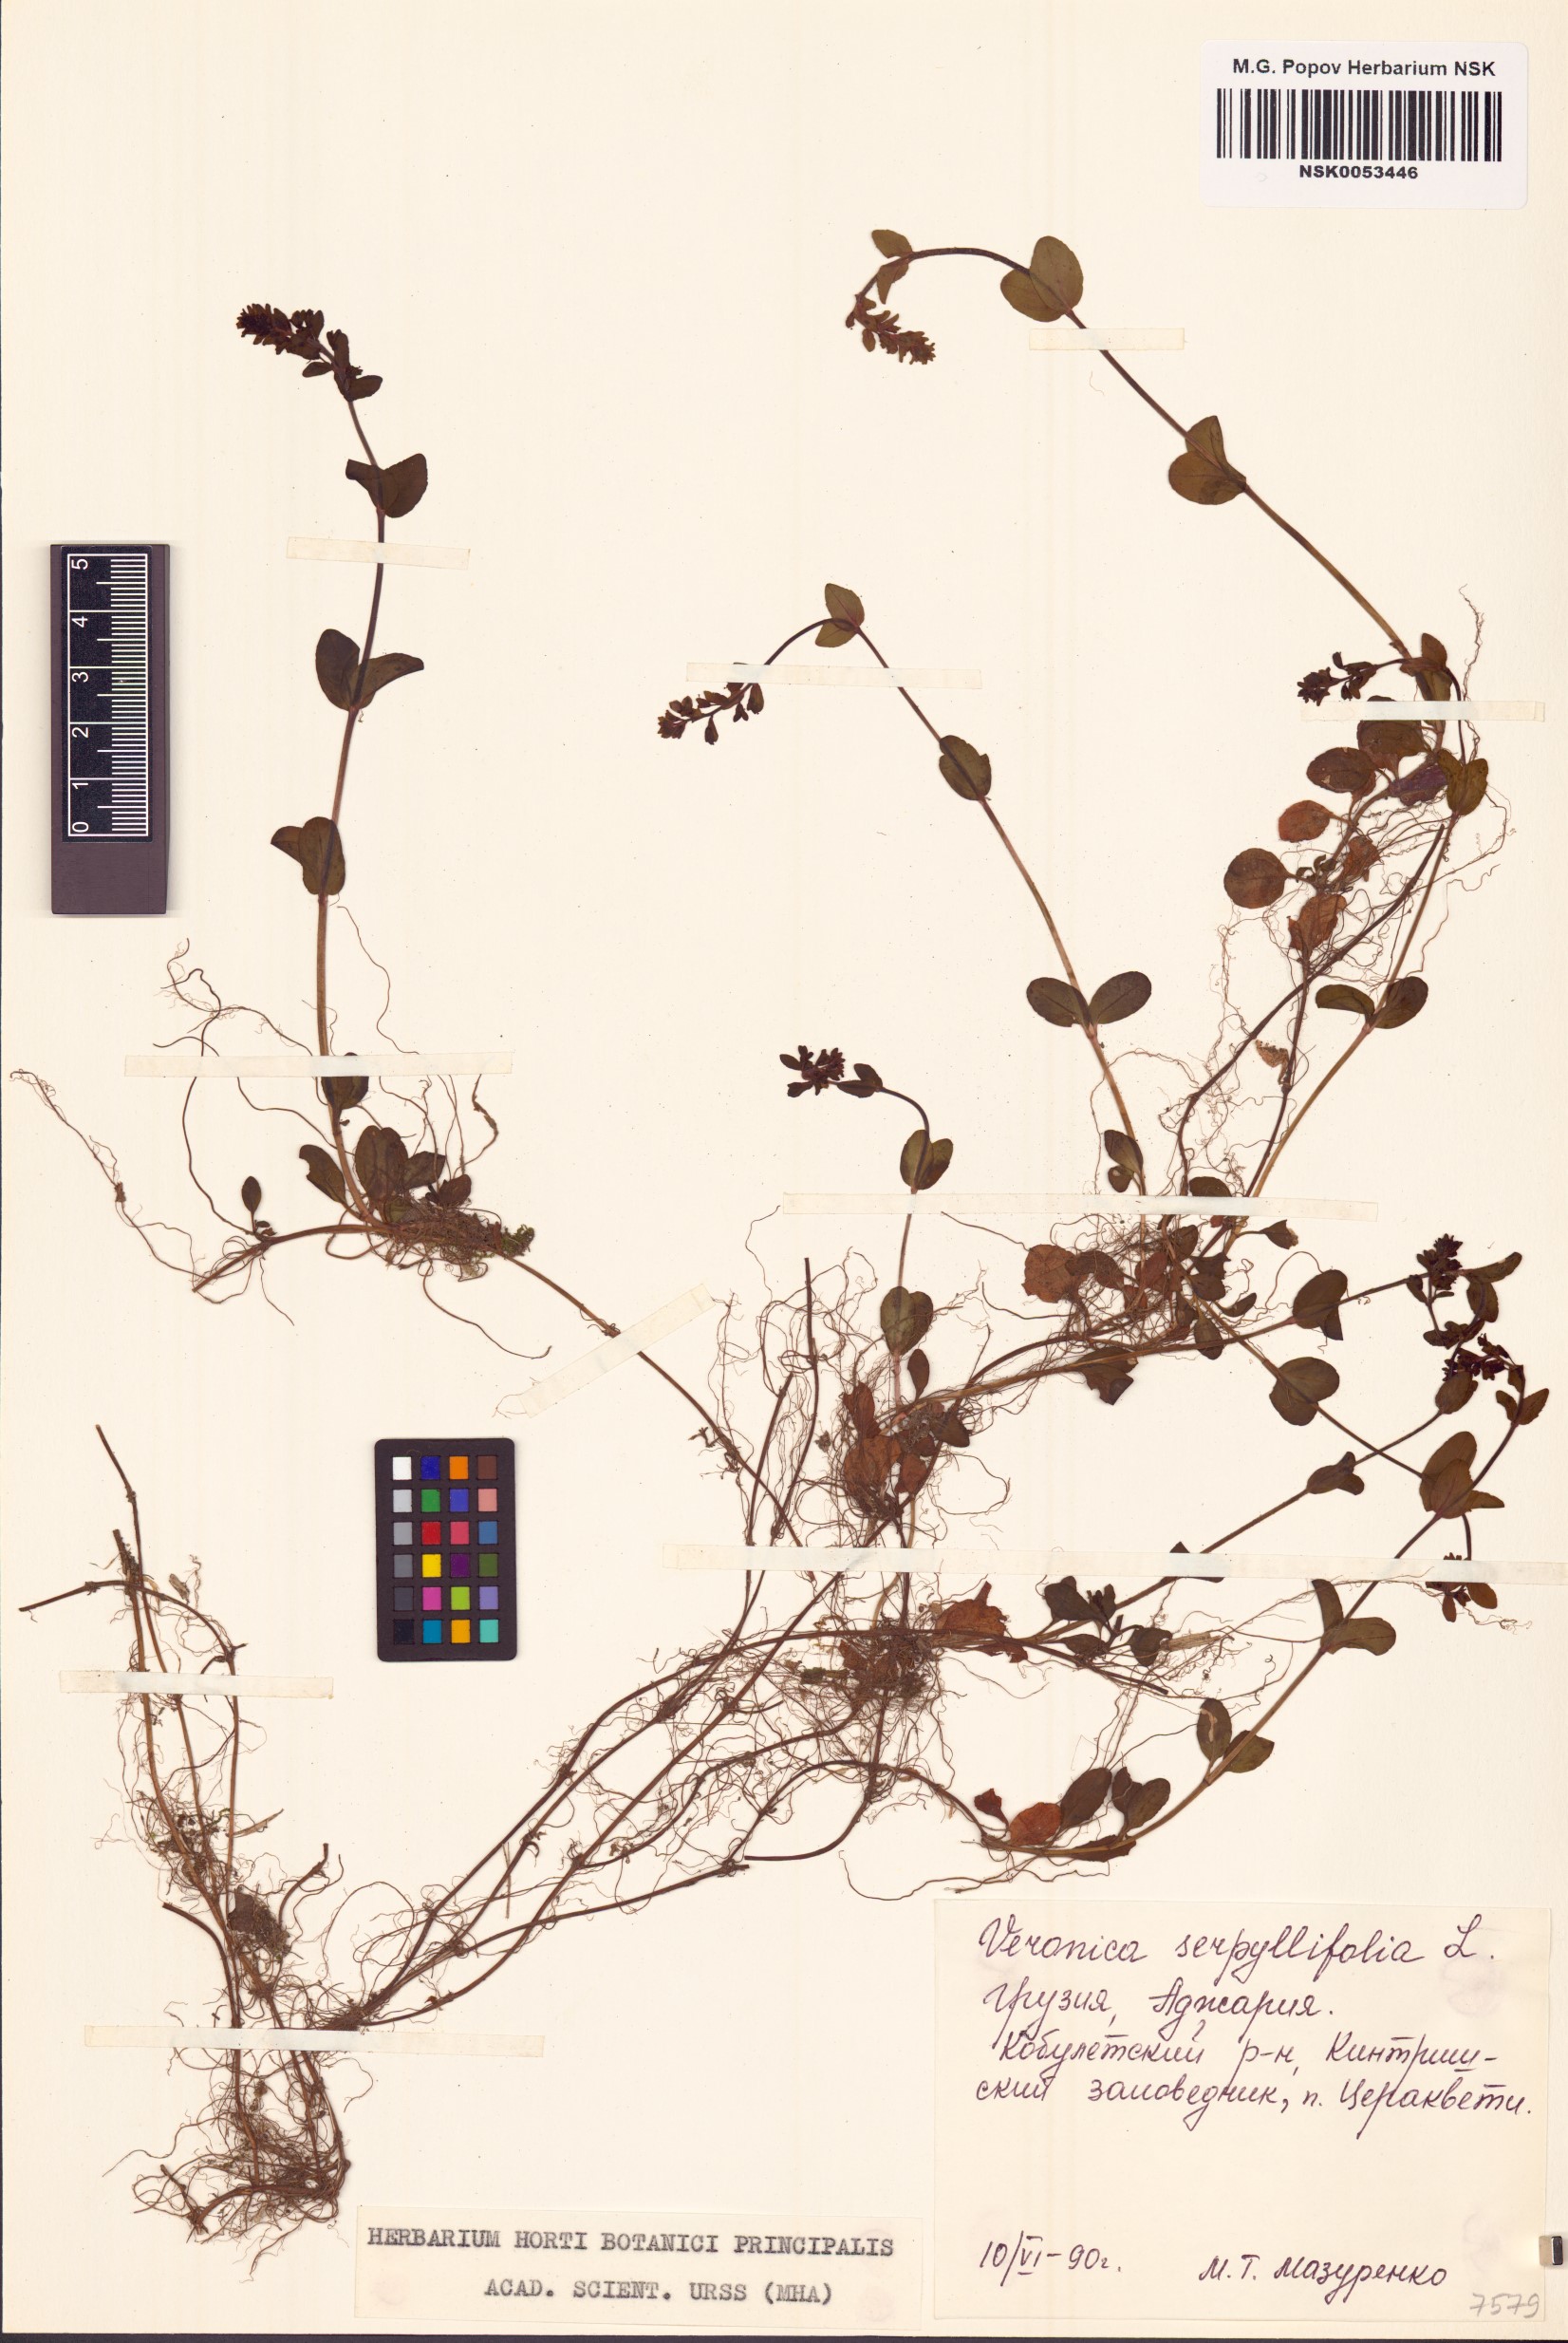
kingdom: Plantae
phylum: Tracheophyta
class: Magnoliopsida
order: Lamiales
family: Plantaginaceae
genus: Veronica
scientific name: Veronica serpyllifolia
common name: Thyme-leaved speedwell
